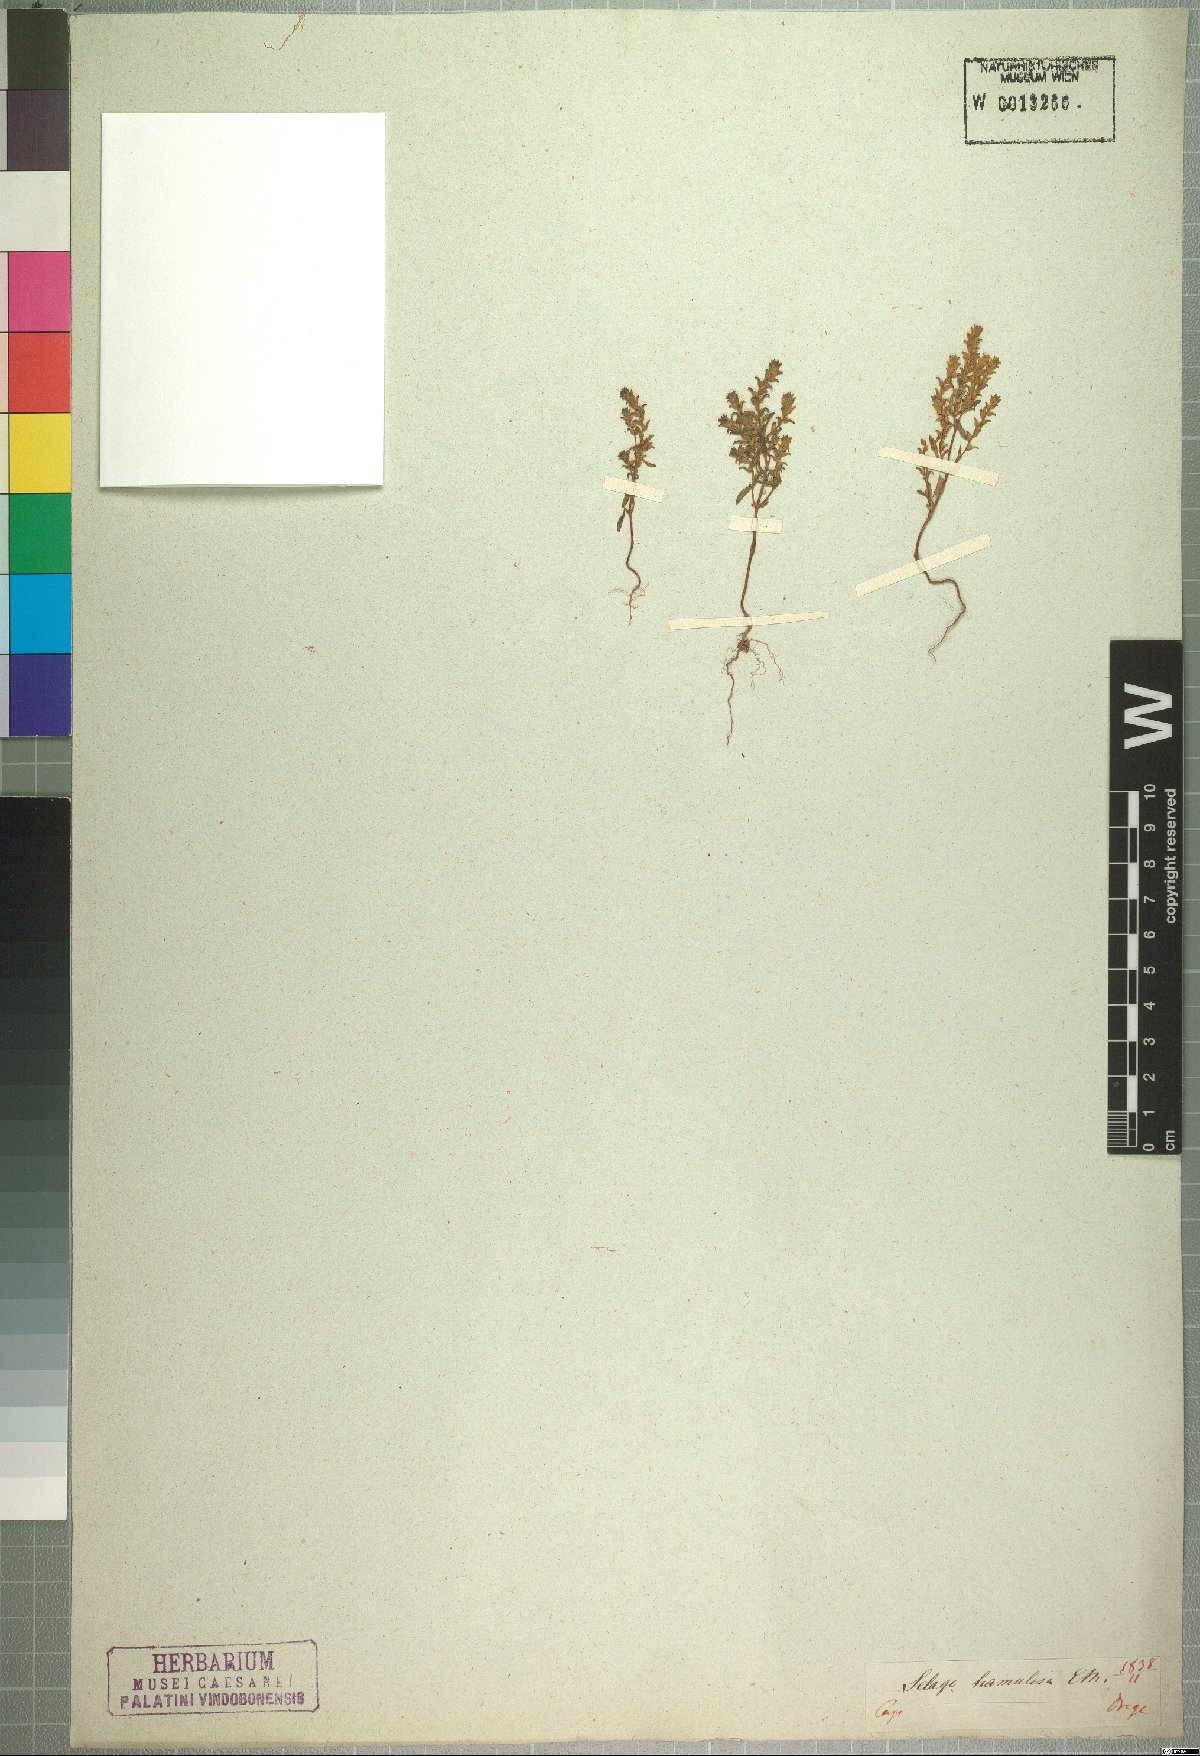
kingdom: Plantae
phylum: Tracheophyta
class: Magnoliopsida
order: Lamiales
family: Scrophulariaceae
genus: Cromidon
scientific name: Cromidon hamulosum
